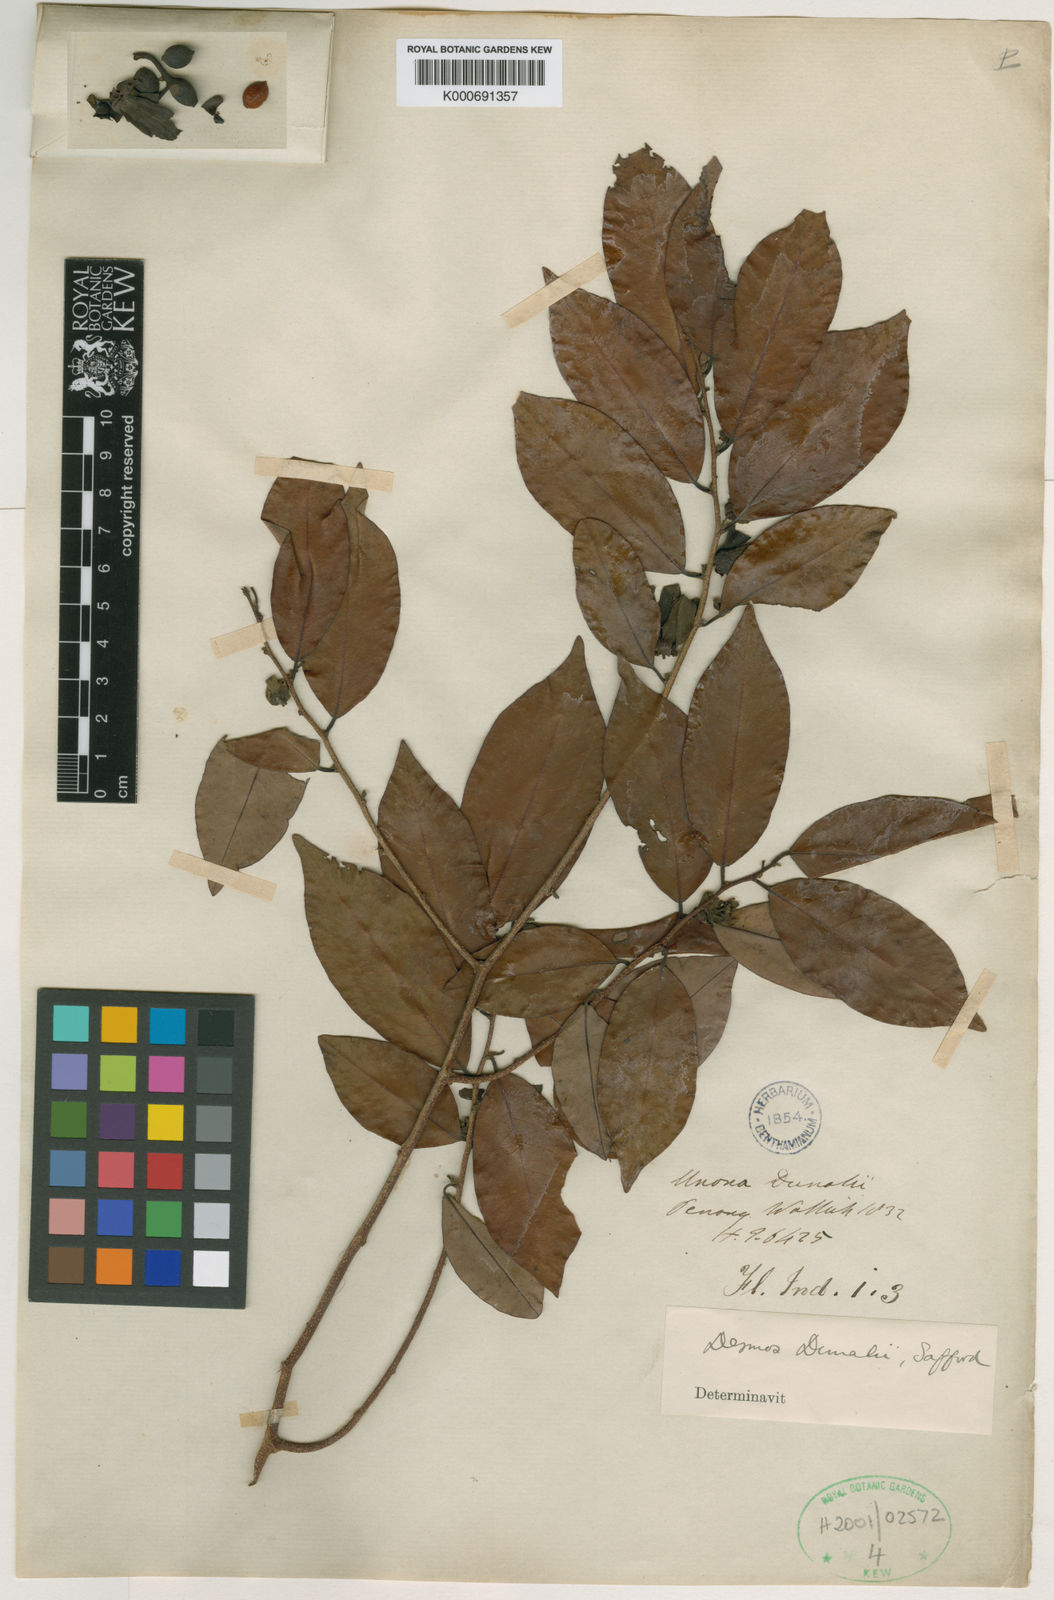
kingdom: Plantae
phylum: Tracheophyta
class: Magnoliopsida
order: Magnoliales
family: Annonaceae
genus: Desmos
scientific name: Desmos dunalii
